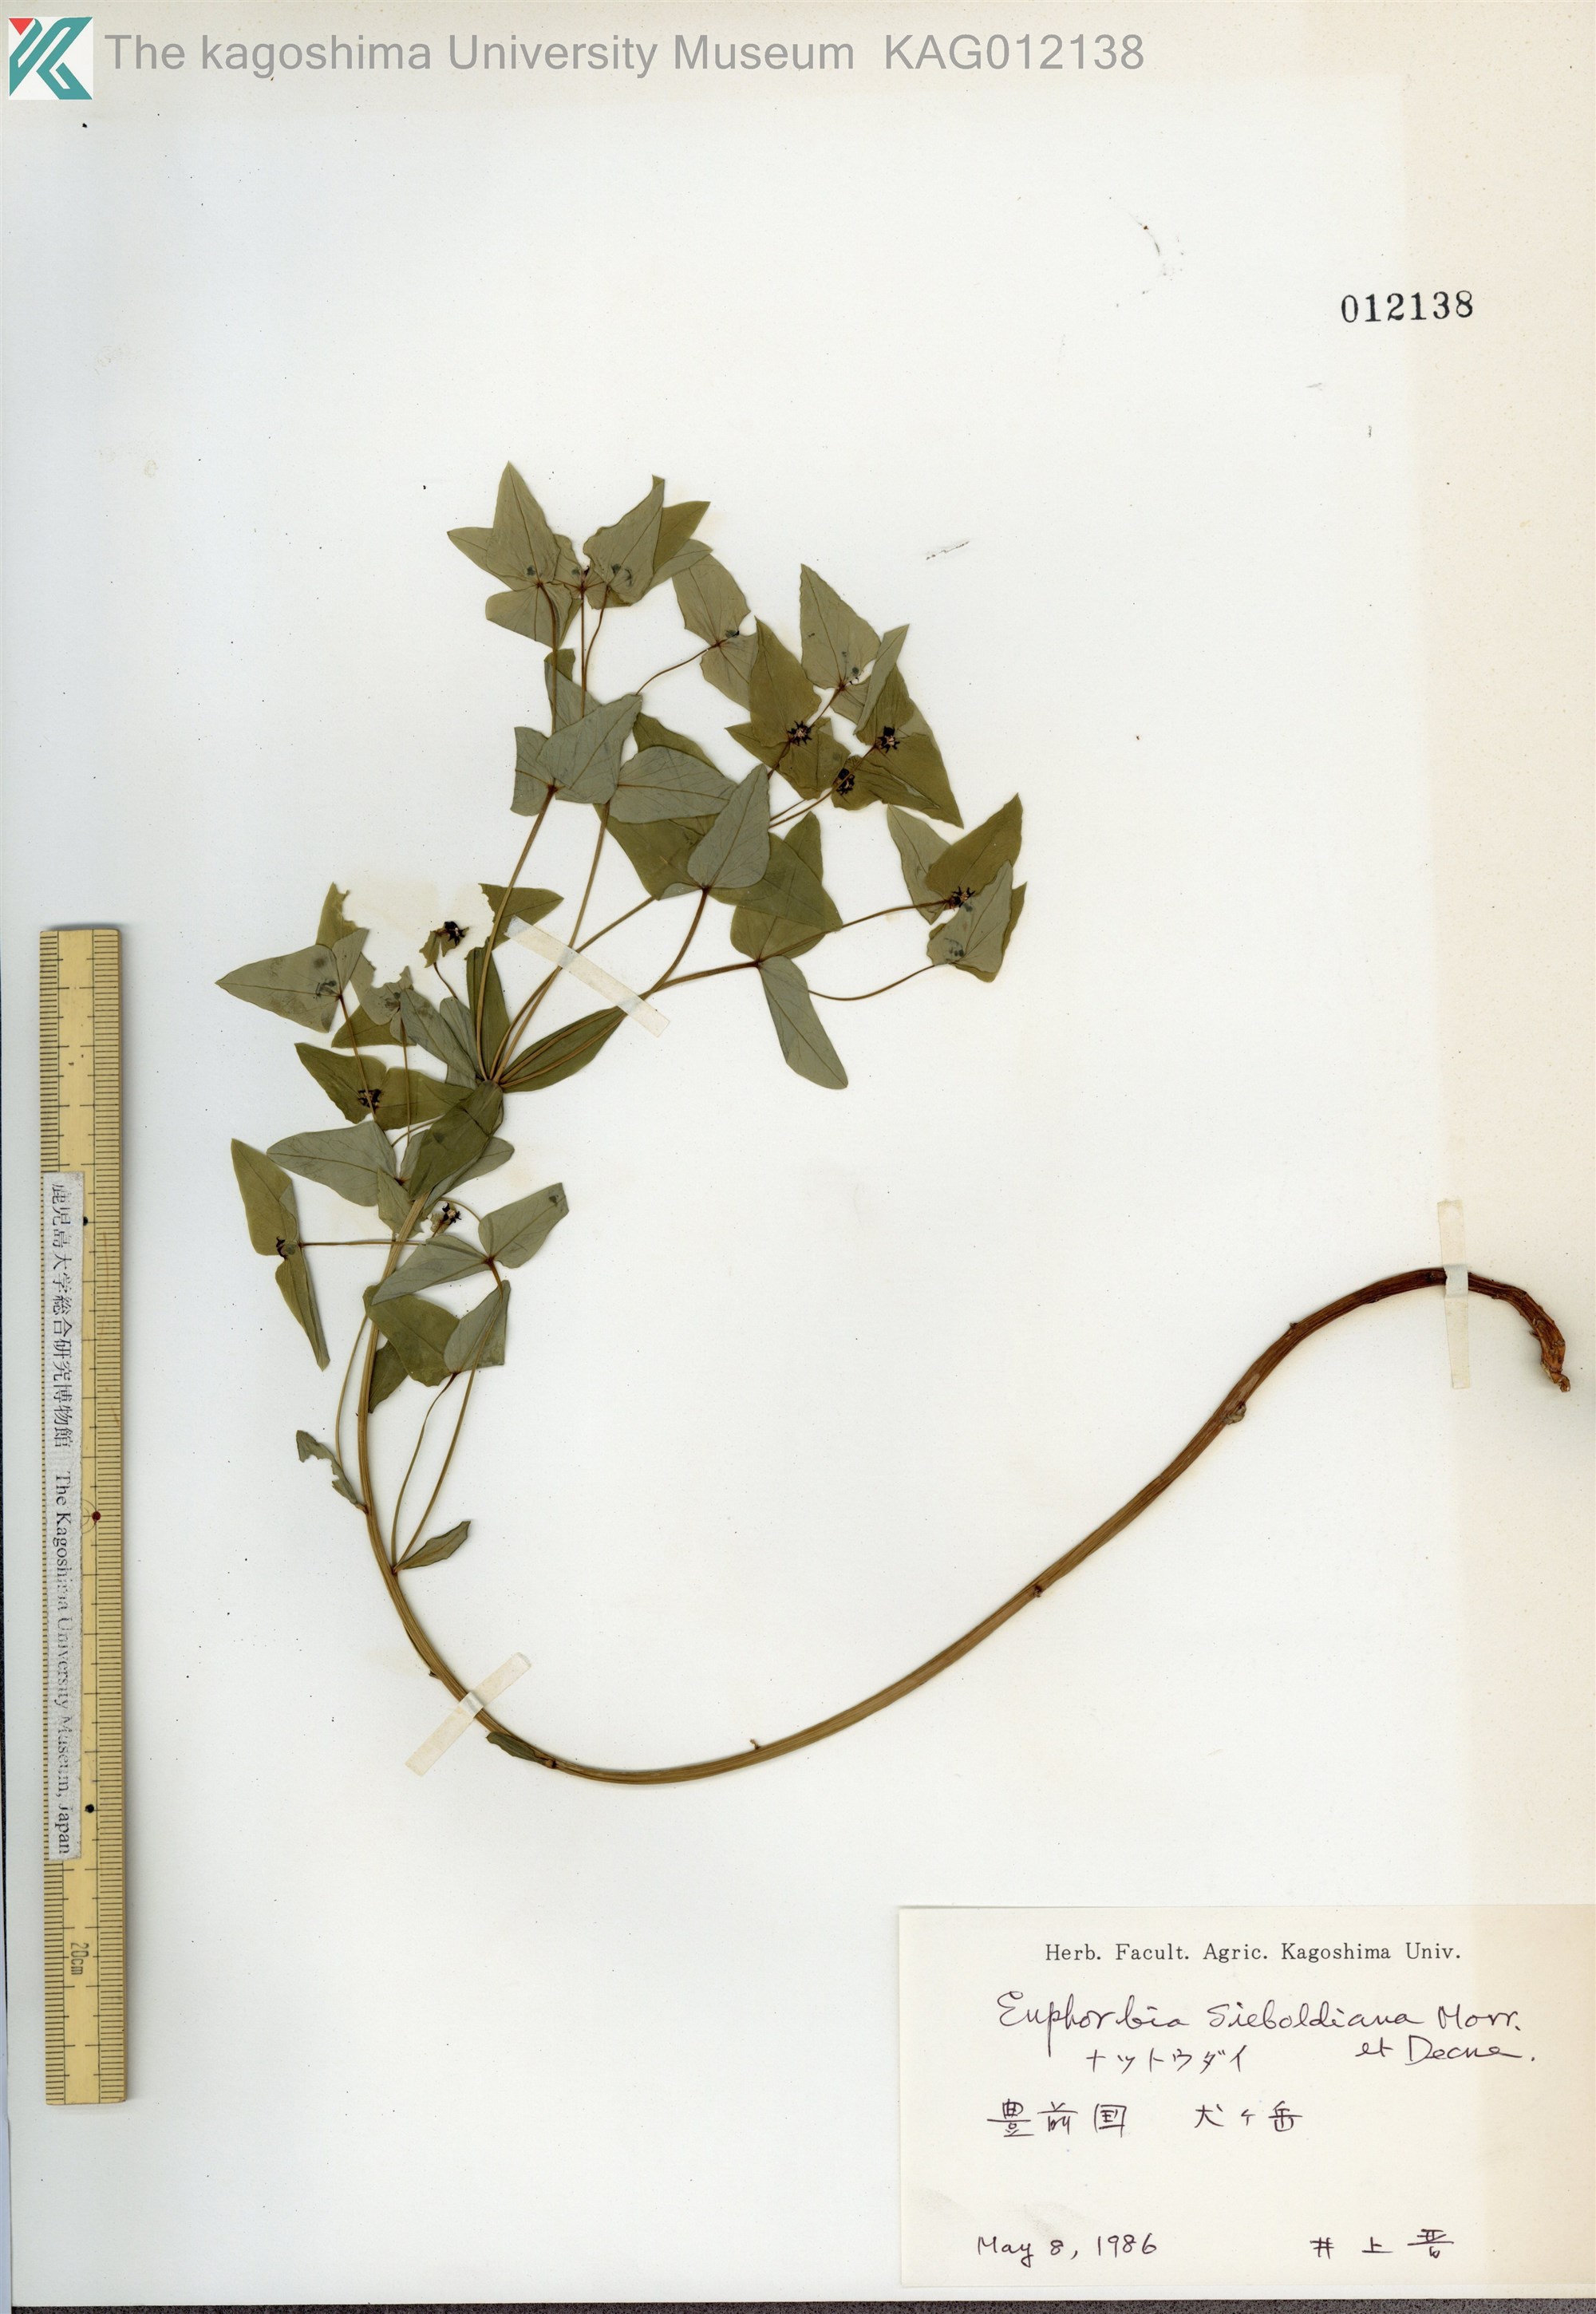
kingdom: Plantae
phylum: Tracheophyta
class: Magnoliopsida
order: Malpighiales
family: Euphorbiaceae
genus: Euphorbia
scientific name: Euphorbia sieboldiana
